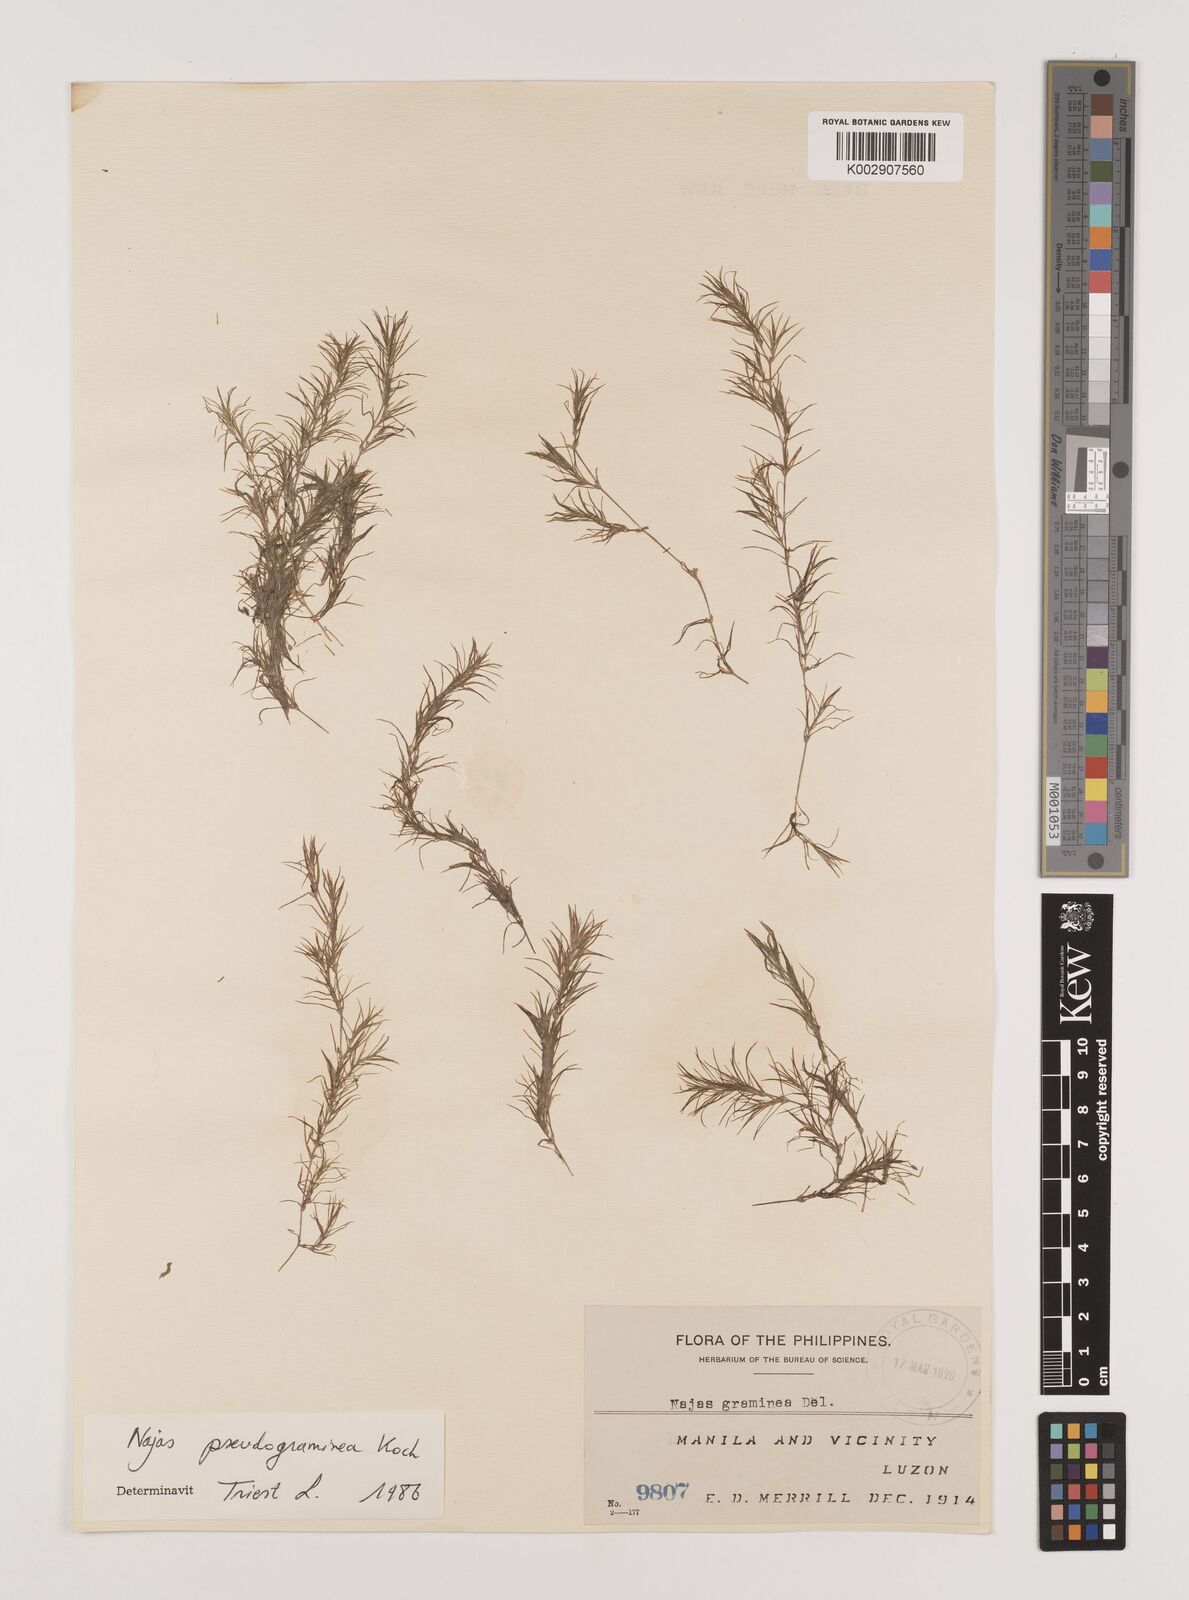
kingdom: Plantae
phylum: Tracheophyta
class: Liliopsida
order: Alismatales
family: Hydrocharitaceae
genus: Najas
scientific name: Najas tenuifolia
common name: Thin-leaved naiad
